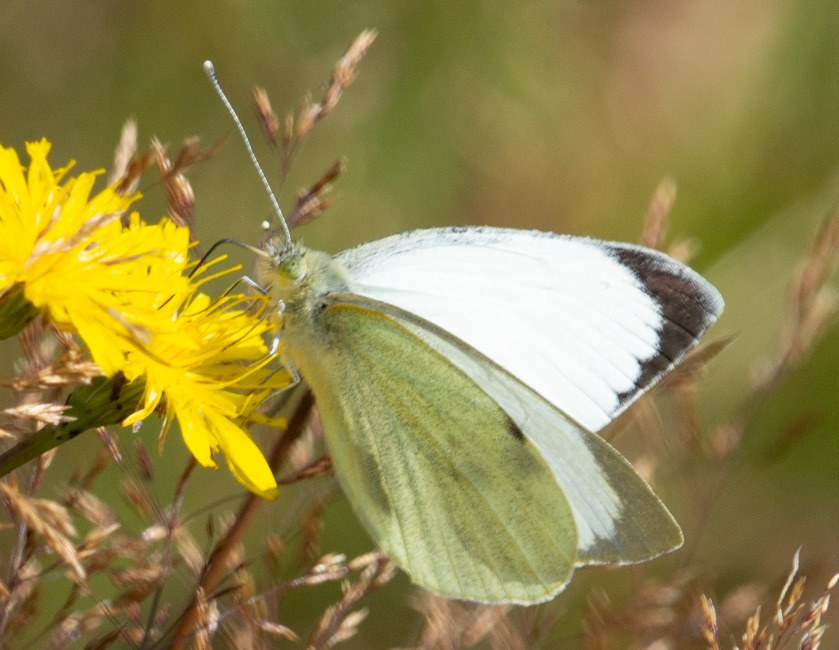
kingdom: Animalia
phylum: Arthropoda
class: Insecta
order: Lepidoptera
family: Pieridae
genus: Pieris
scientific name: Pieris brassicae
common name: Stor kålsommerfugl
